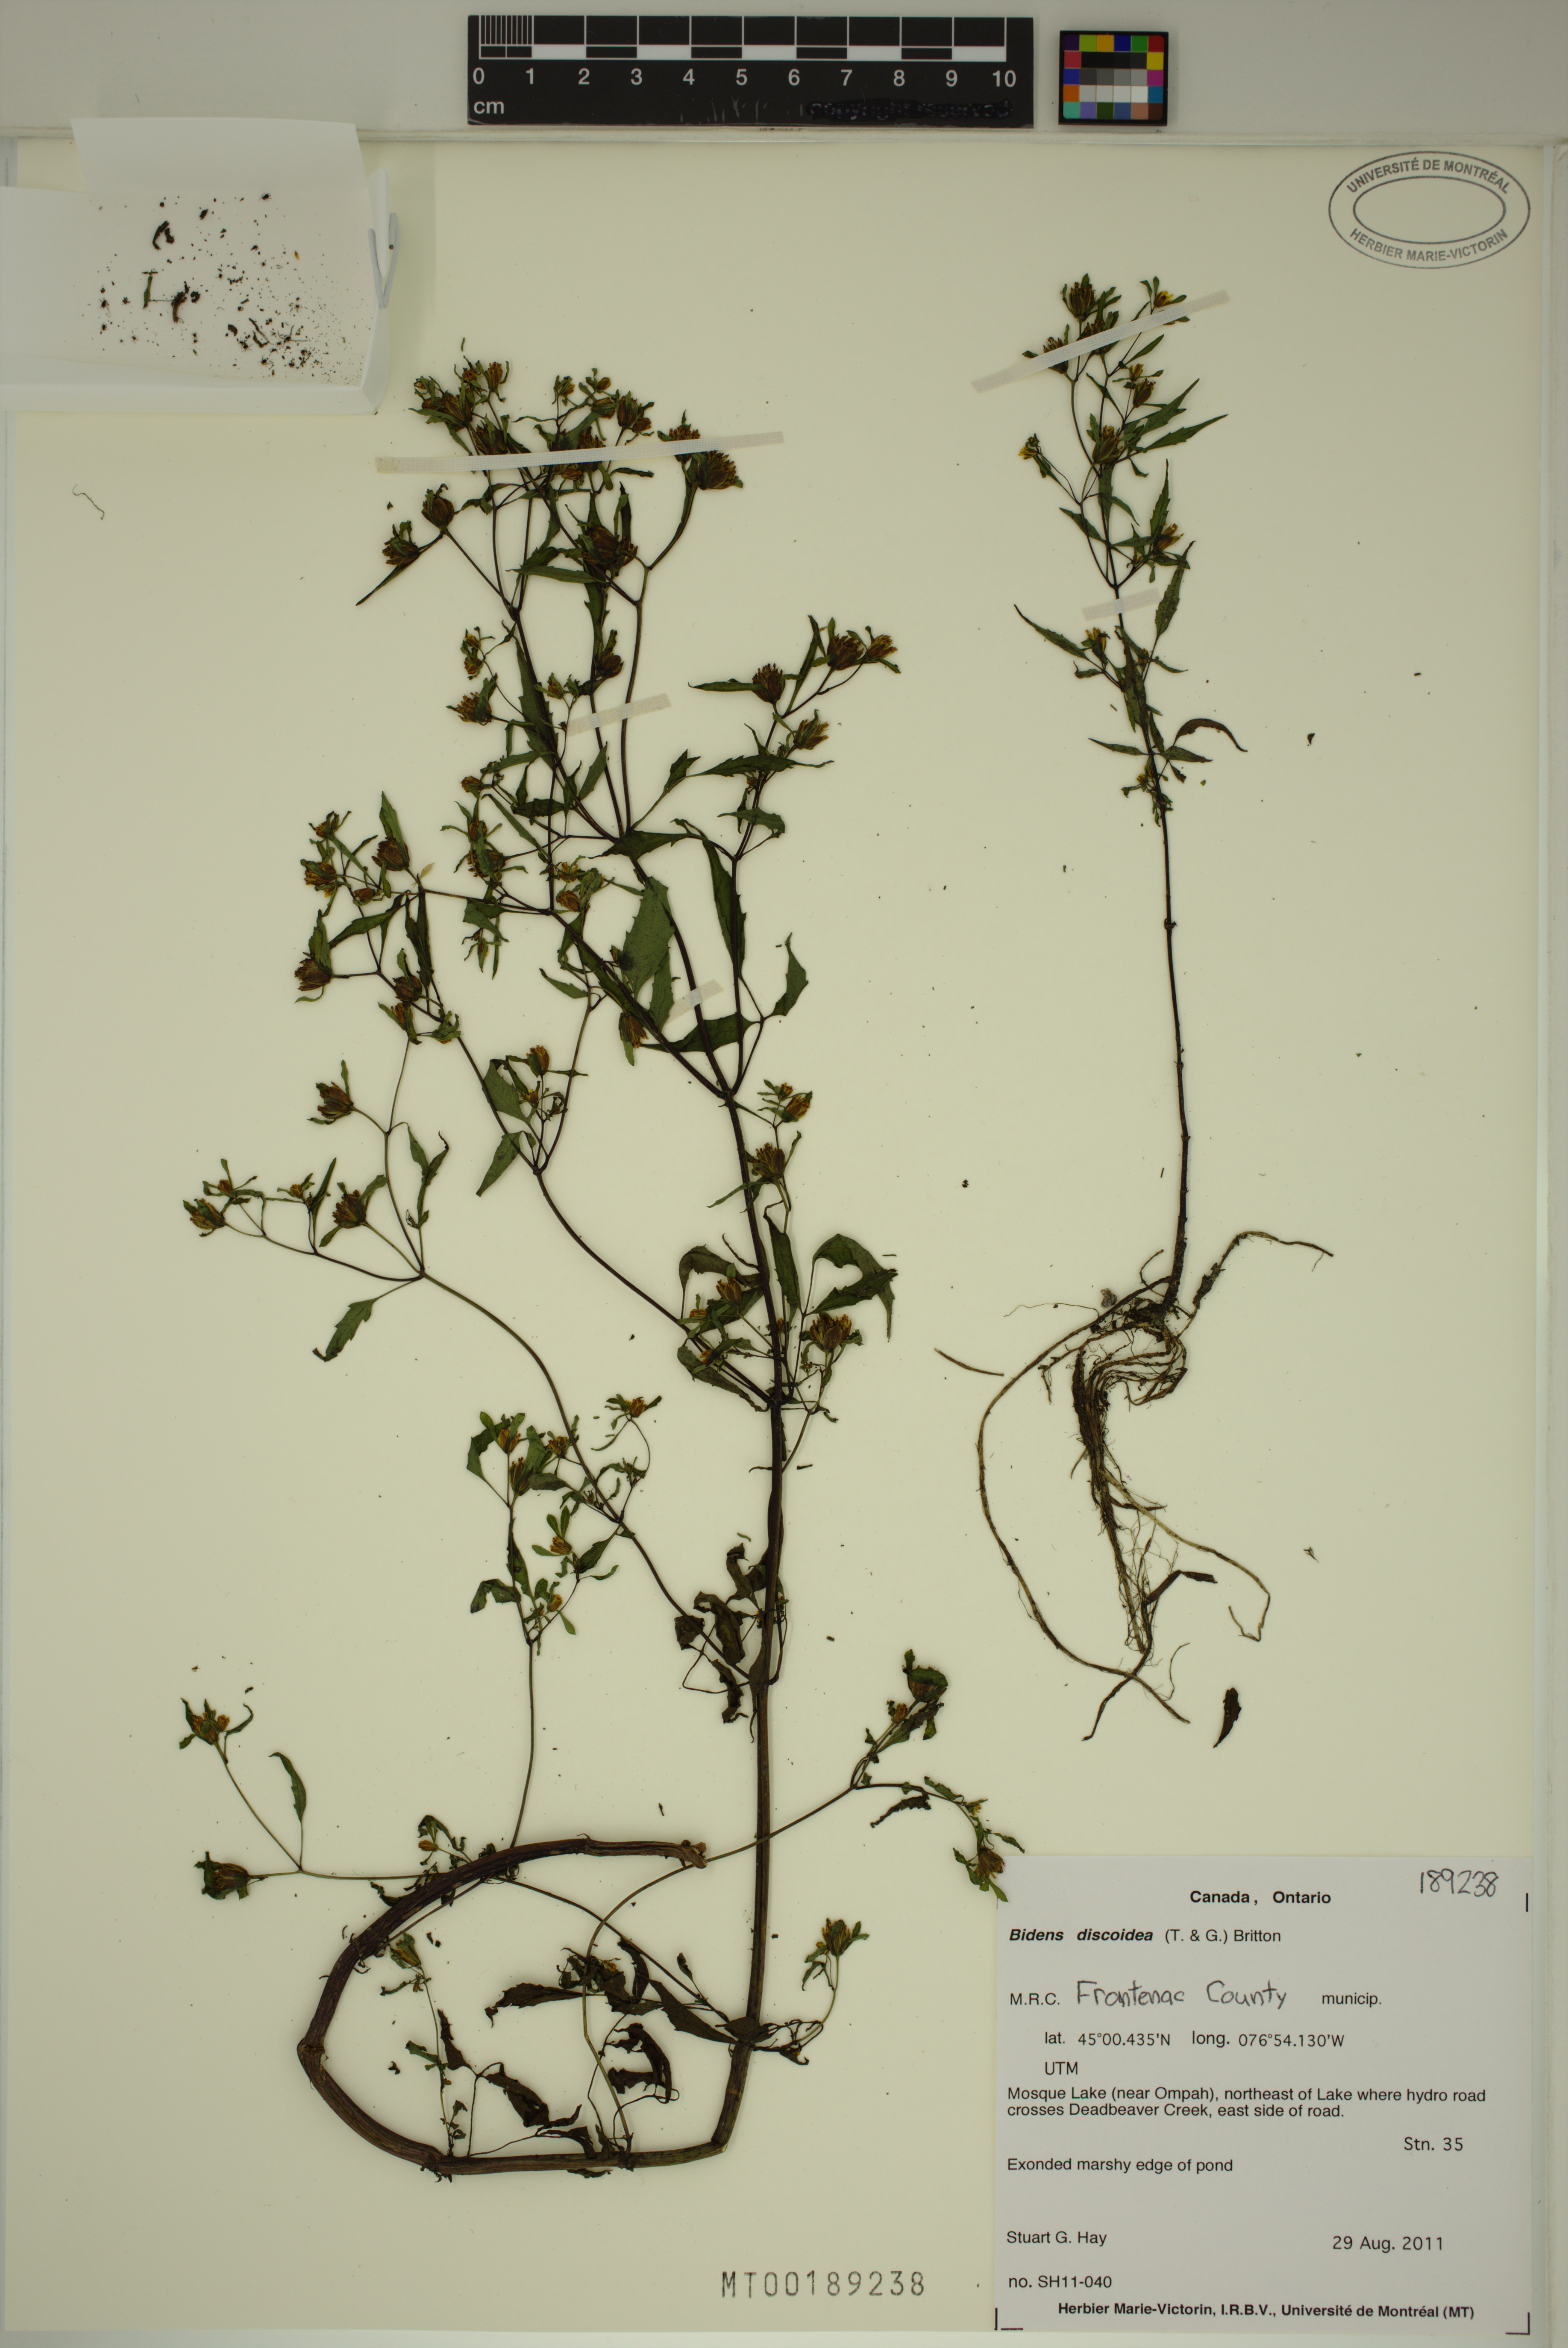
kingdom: Plantae
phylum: Tracheophyta
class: Magnoliopsida
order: Asterales
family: Asteraceae
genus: Bidens
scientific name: Bidens discoidea
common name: Discoide beggarticks
